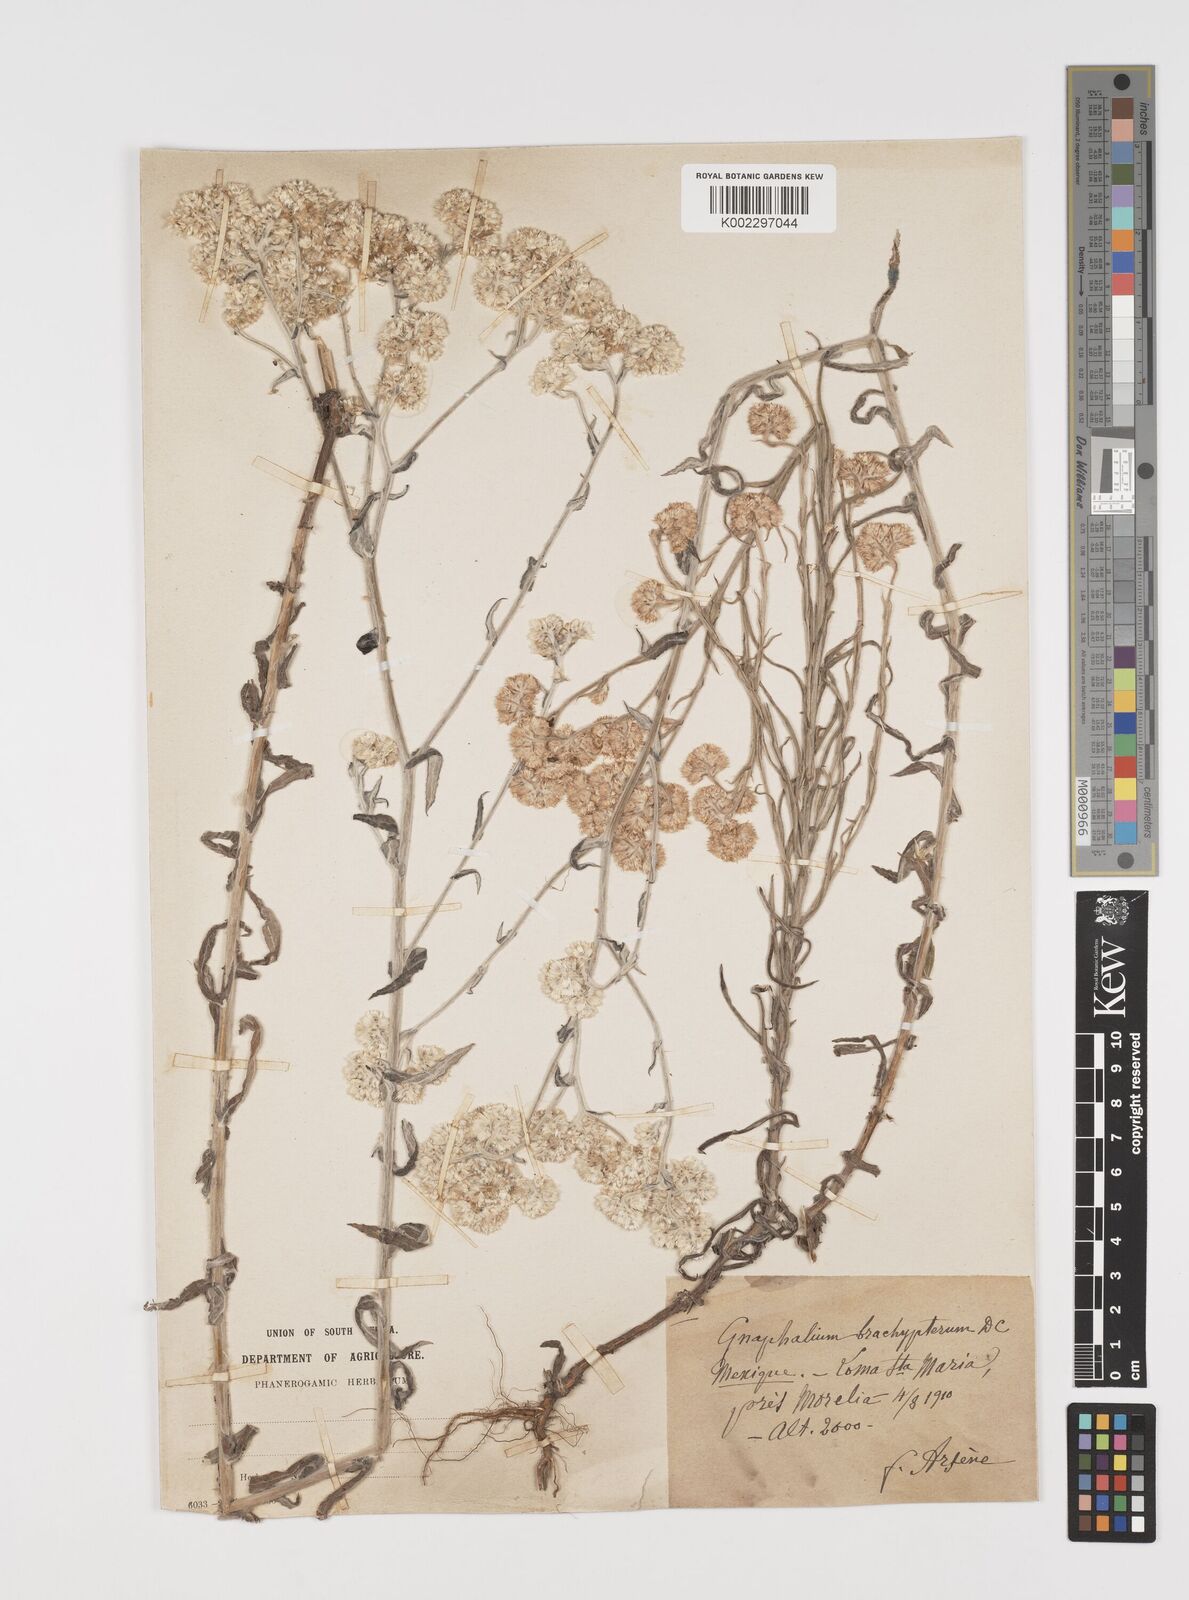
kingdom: Plantae
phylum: Tracheophyta
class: Magnoliopsida
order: Asterales
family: Asteraceae
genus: Pseudognaphalium
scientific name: Pseudognaphalium brachypterum
